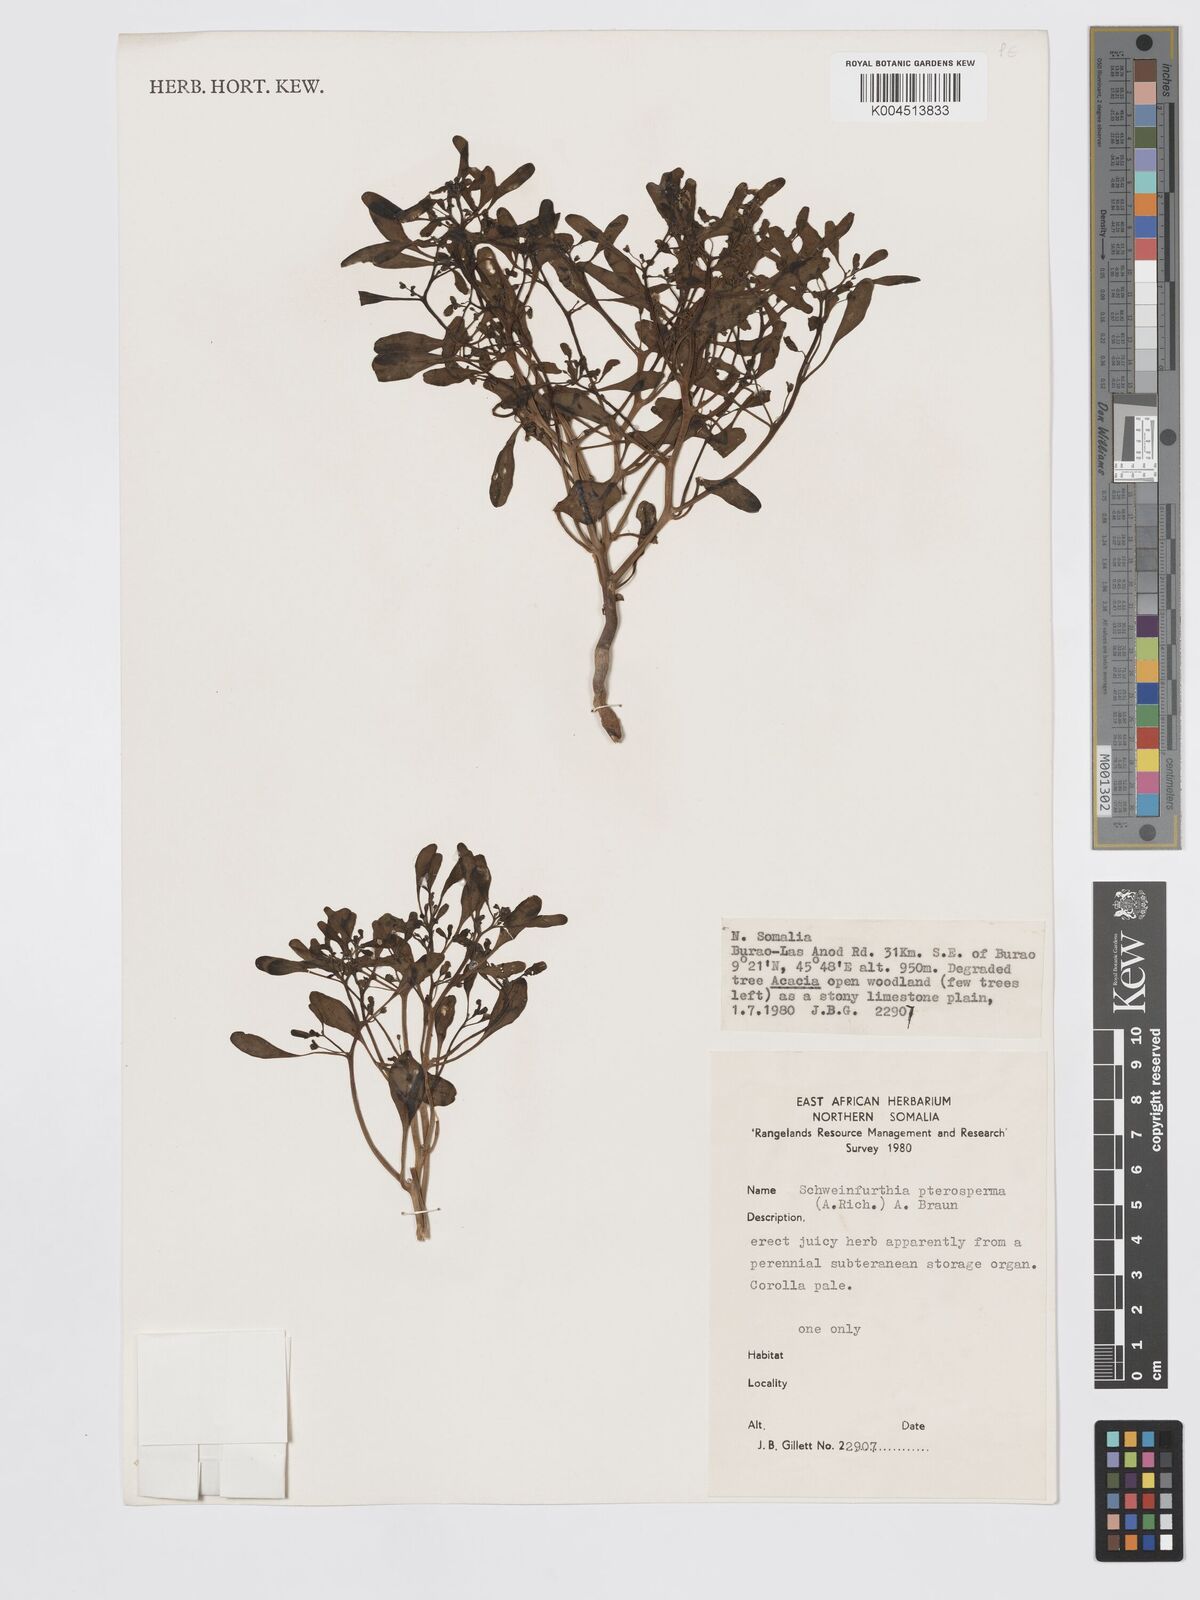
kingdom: Plantae
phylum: Tracheophyta
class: Magnoliopsida
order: Lamiales
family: Plantaginaceae
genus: Schweinfurthia
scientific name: Schweinfurthia pterosperma
